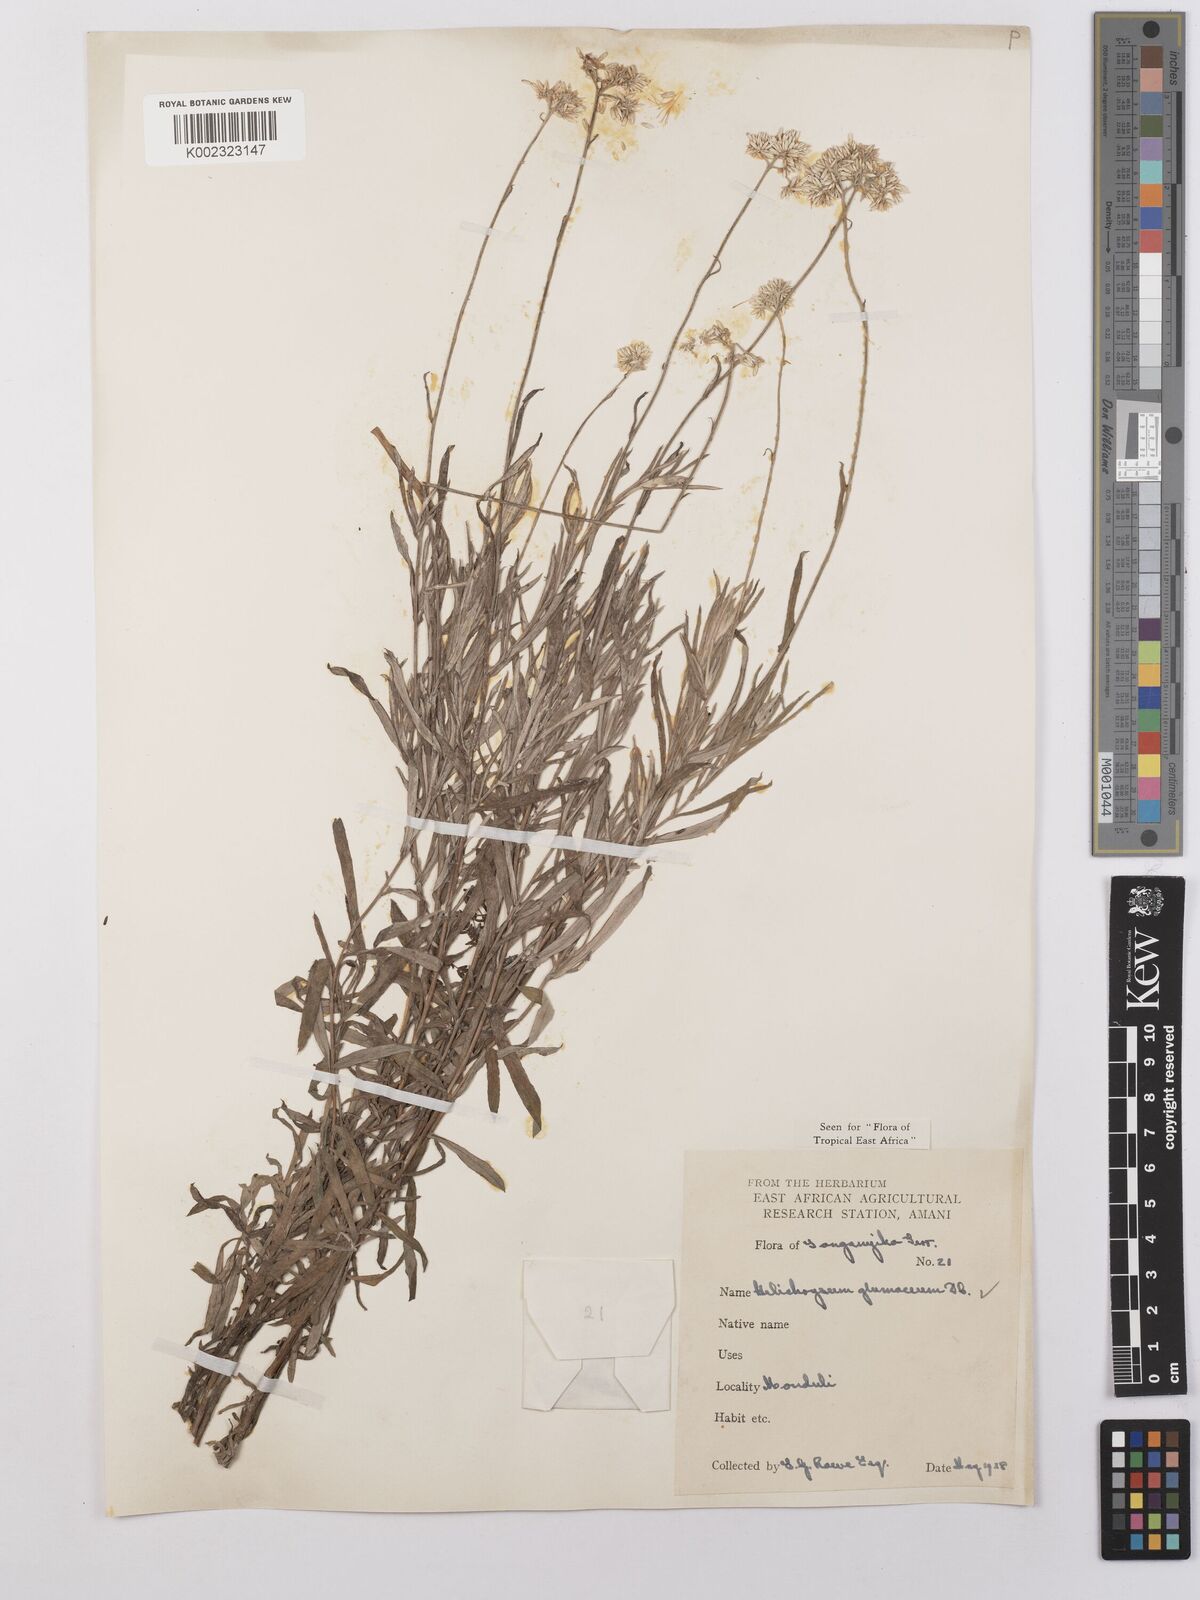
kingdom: Plantae
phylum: Tracheophyta
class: Magnoliopsida
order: Asterales
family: Asteraceae
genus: Helichrysum
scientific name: Helichrysum glumaceum
